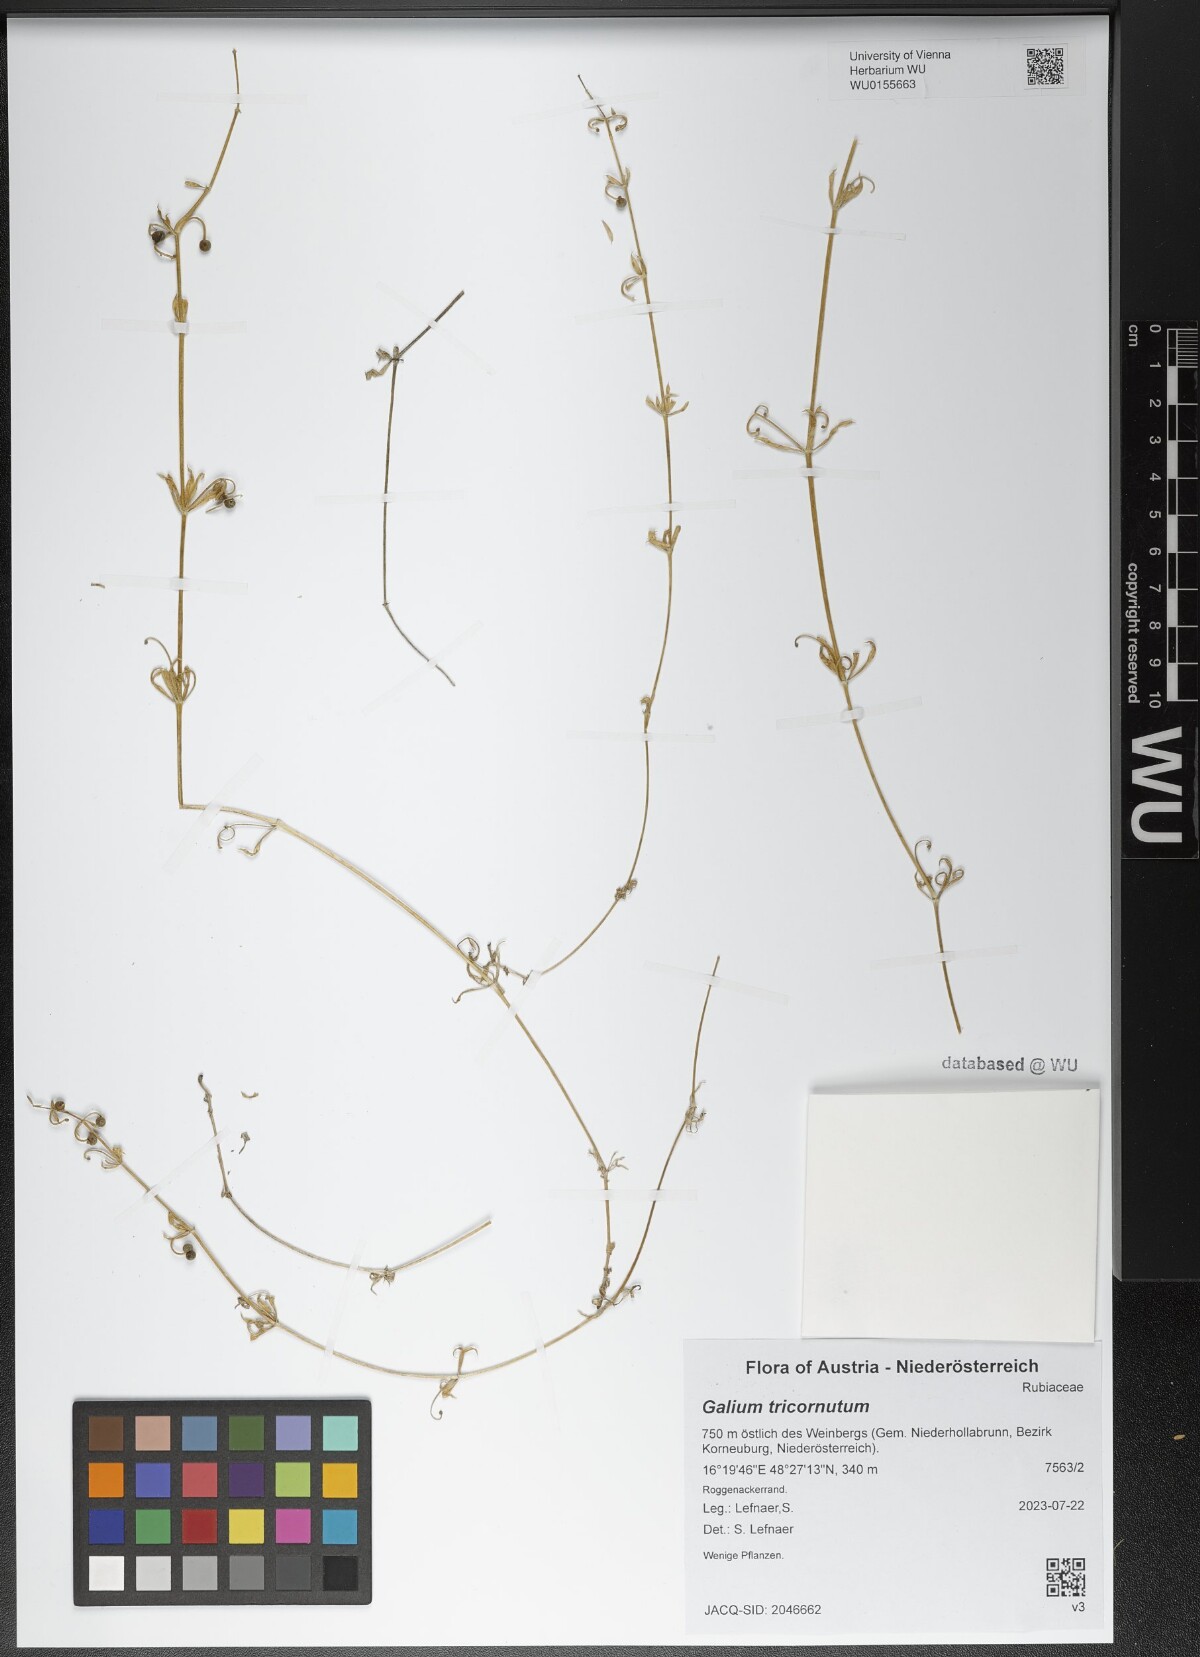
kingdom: Plantae
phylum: Tracheophyta
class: Magnoliopsida
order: Gentianales
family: Rubiaceae
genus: Galium
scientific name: Galium tricornutum
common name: Corn cleavers
